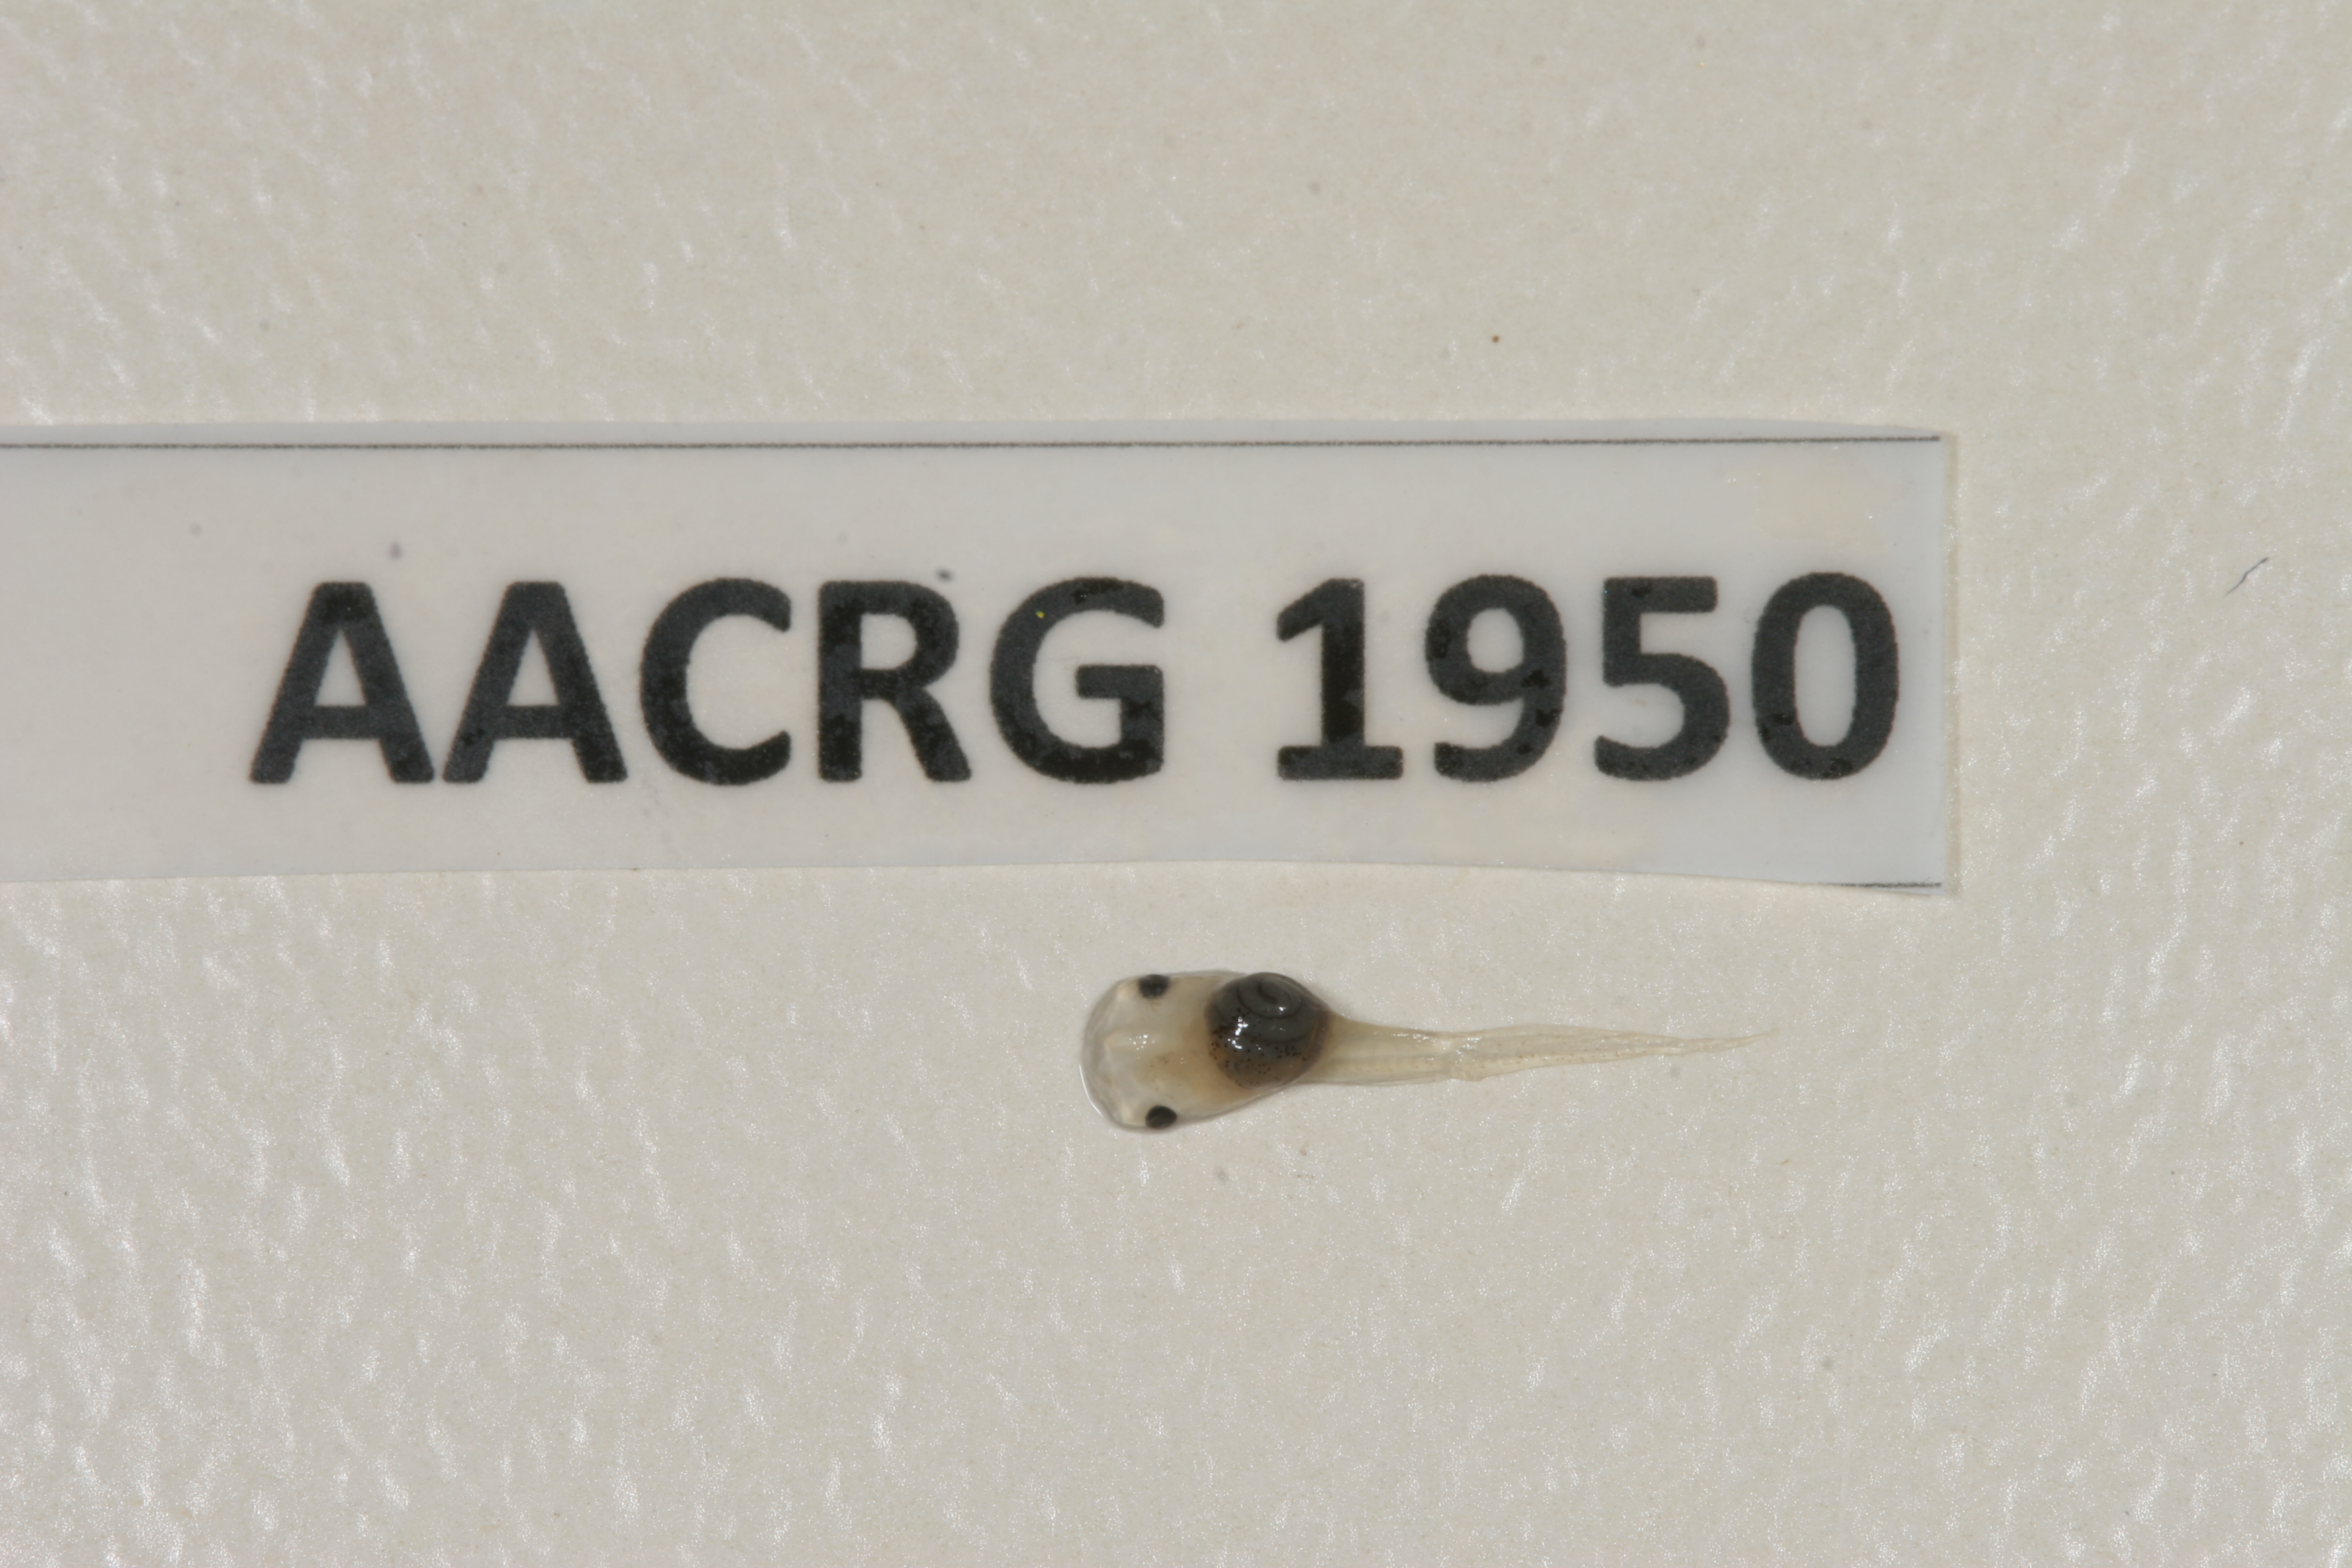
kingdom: Animalia
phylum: Chordata
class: Amphibia
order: Anura
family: Pipidae
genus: Xenopus
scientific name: Xenopus muelleri
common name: Muller's clawed frog
